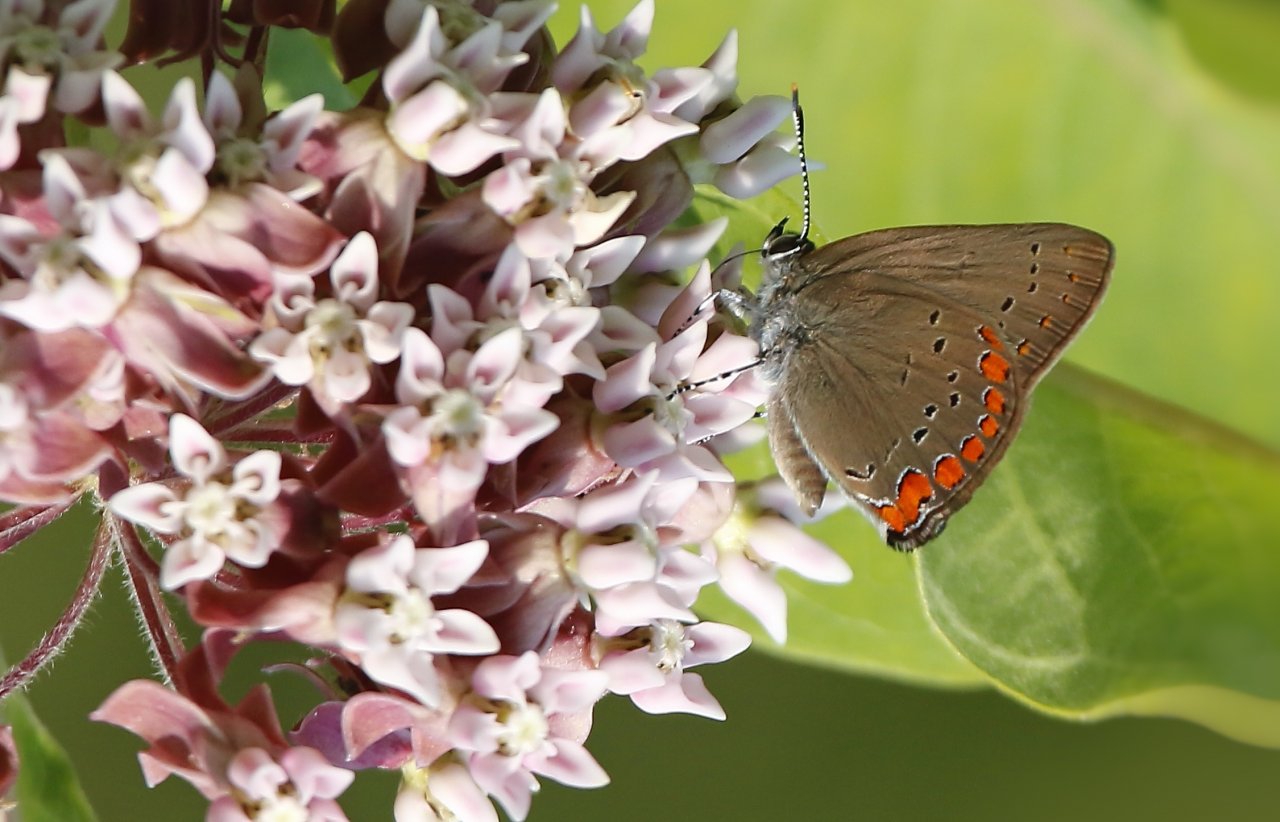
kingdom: Animalia
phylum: Arthropoda
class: Insecta
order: Lepidoptera
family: Lycaenidae
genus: Harkenclenus
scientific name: Harkenclenus titus
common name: Coral Hairstreak
